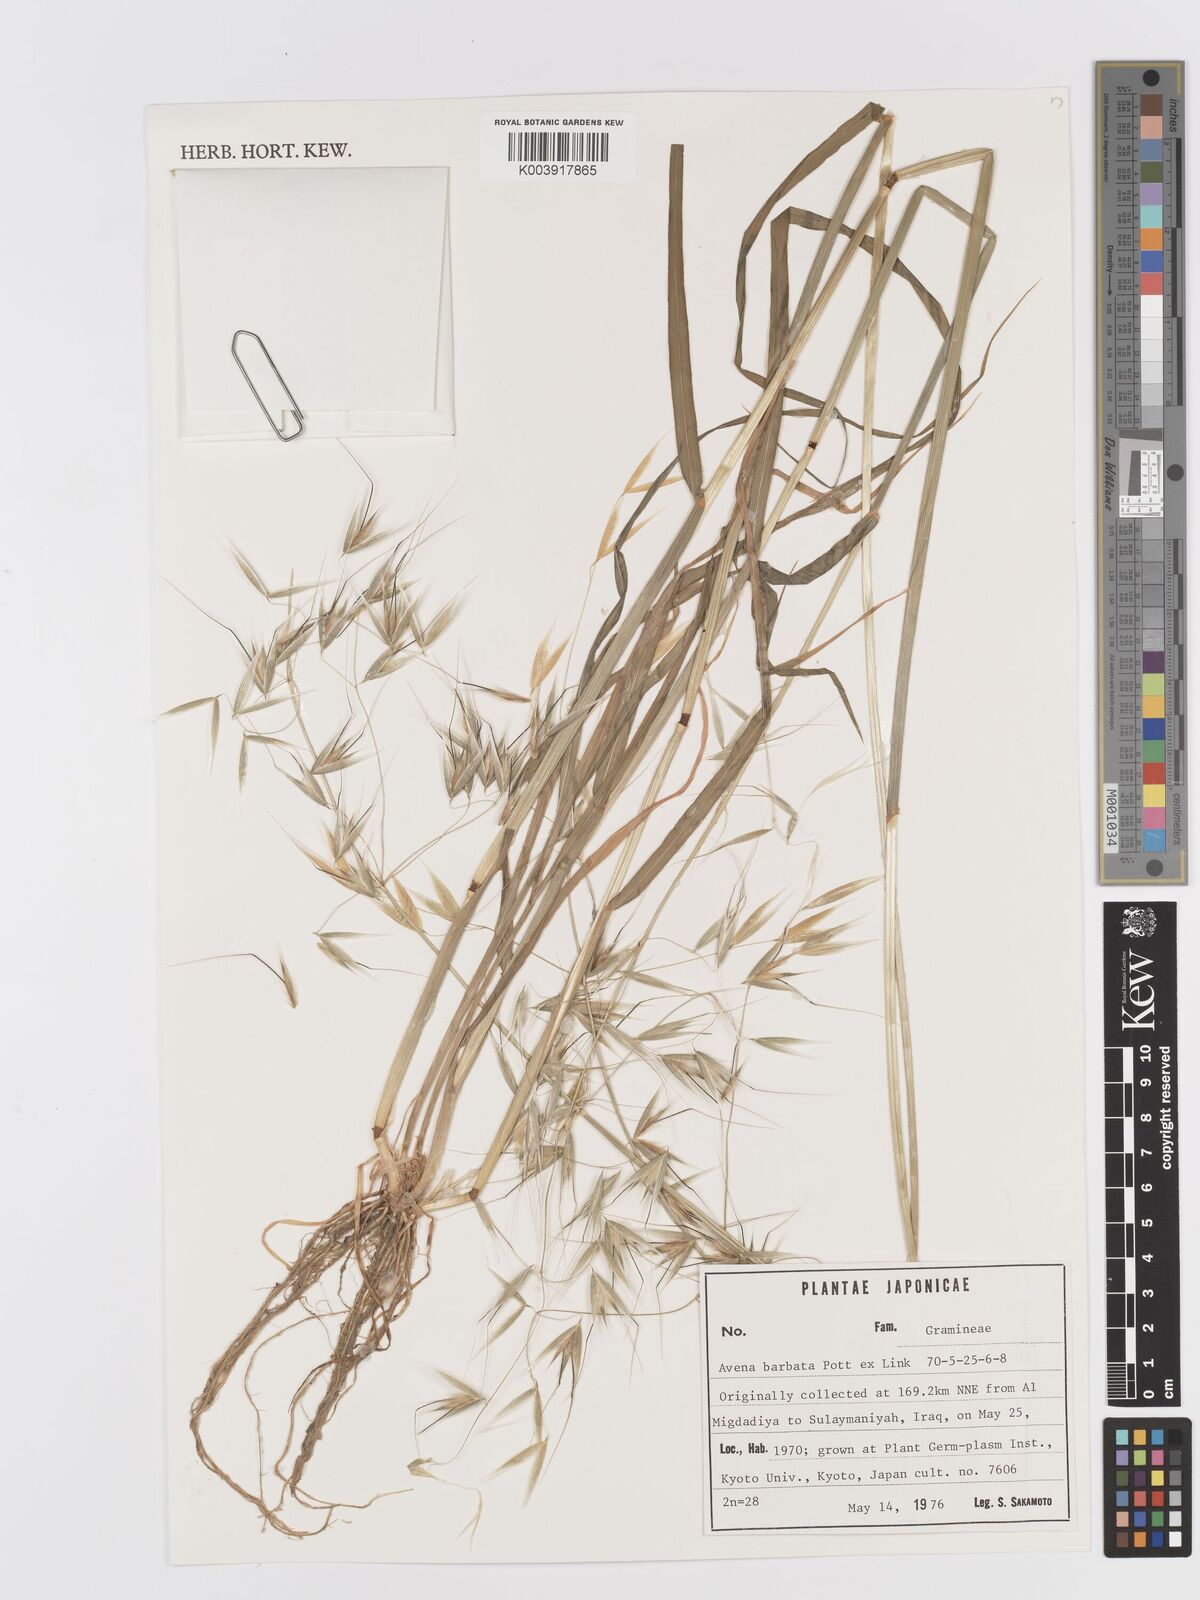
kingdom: Plantae
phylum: Tracheophyta
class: Liliopsida
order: Poales
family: Poaceae
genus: Avena
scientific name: Avena
